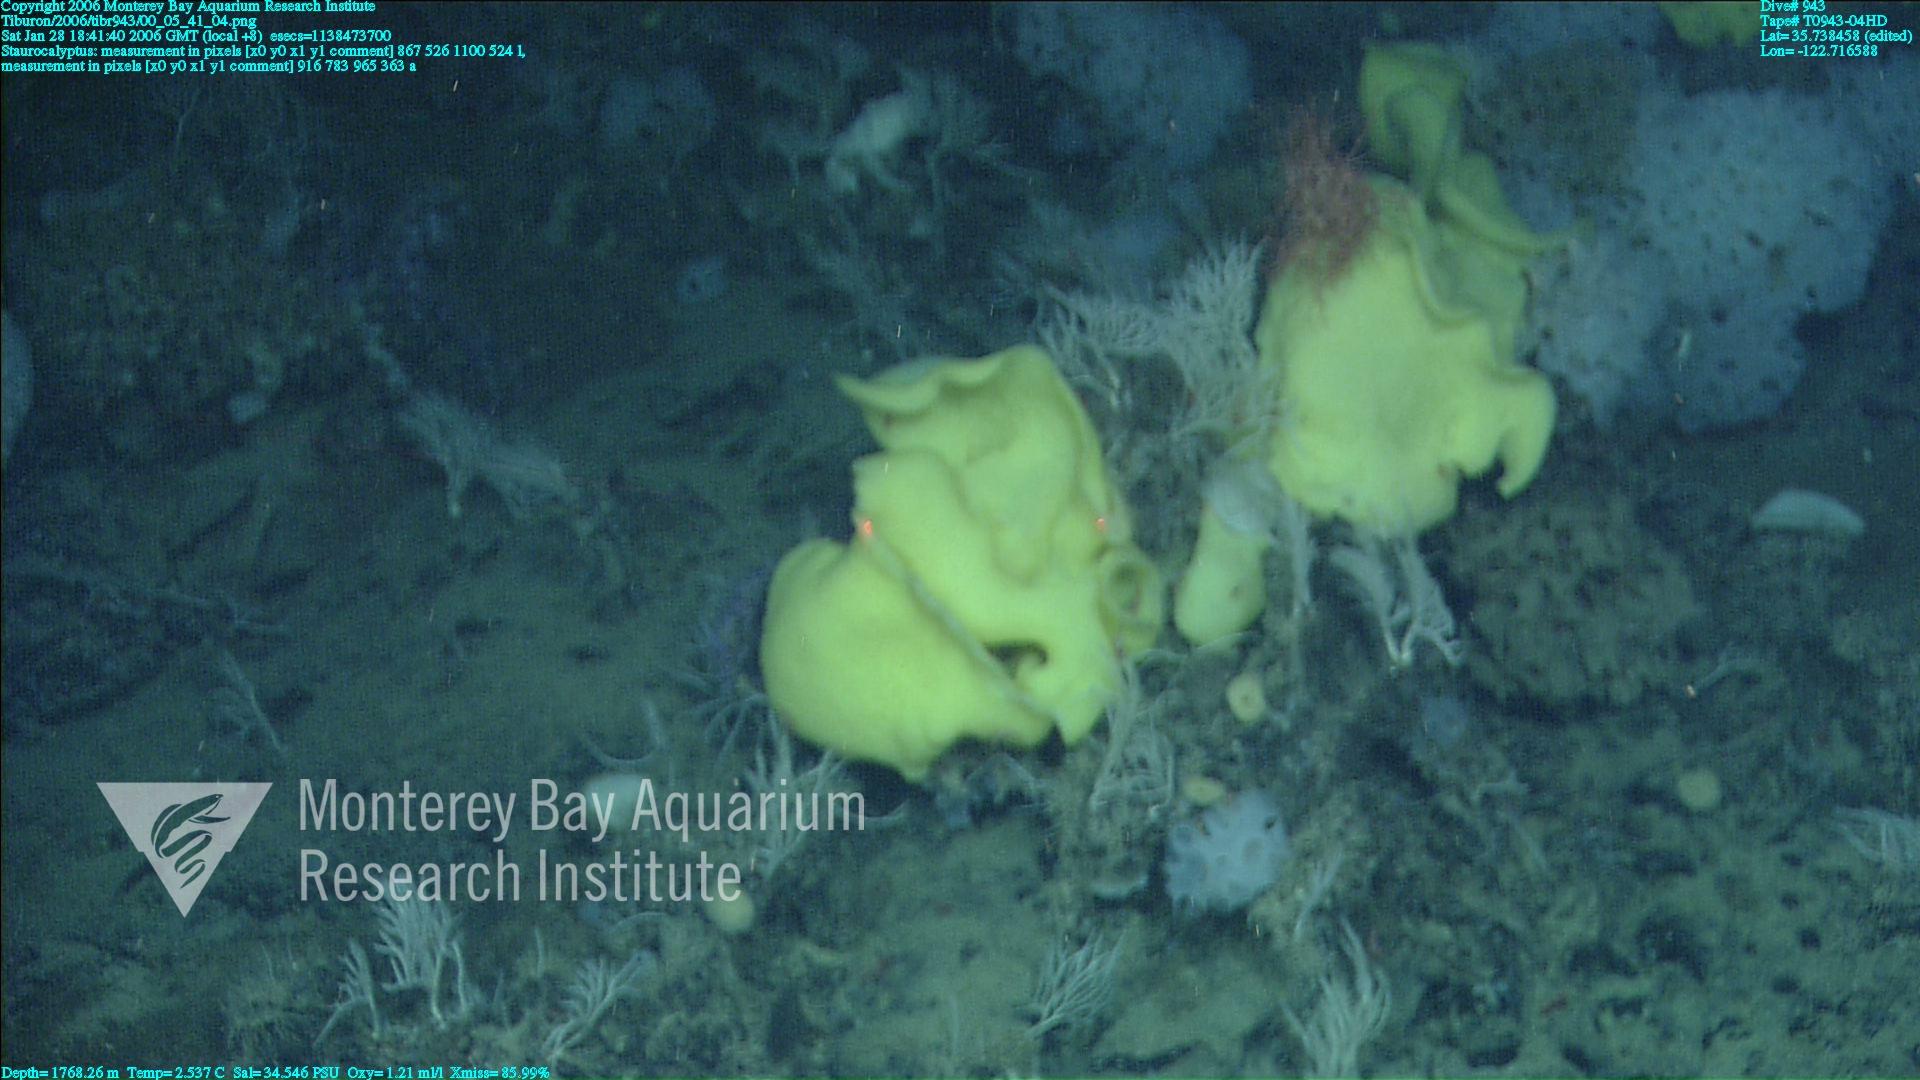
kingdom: Animalia
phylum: Porifera
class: Hexactinellida
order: Lyssacinosida
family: Rossellidae
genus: Staurocalyptus
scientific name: Staurocalyptus
